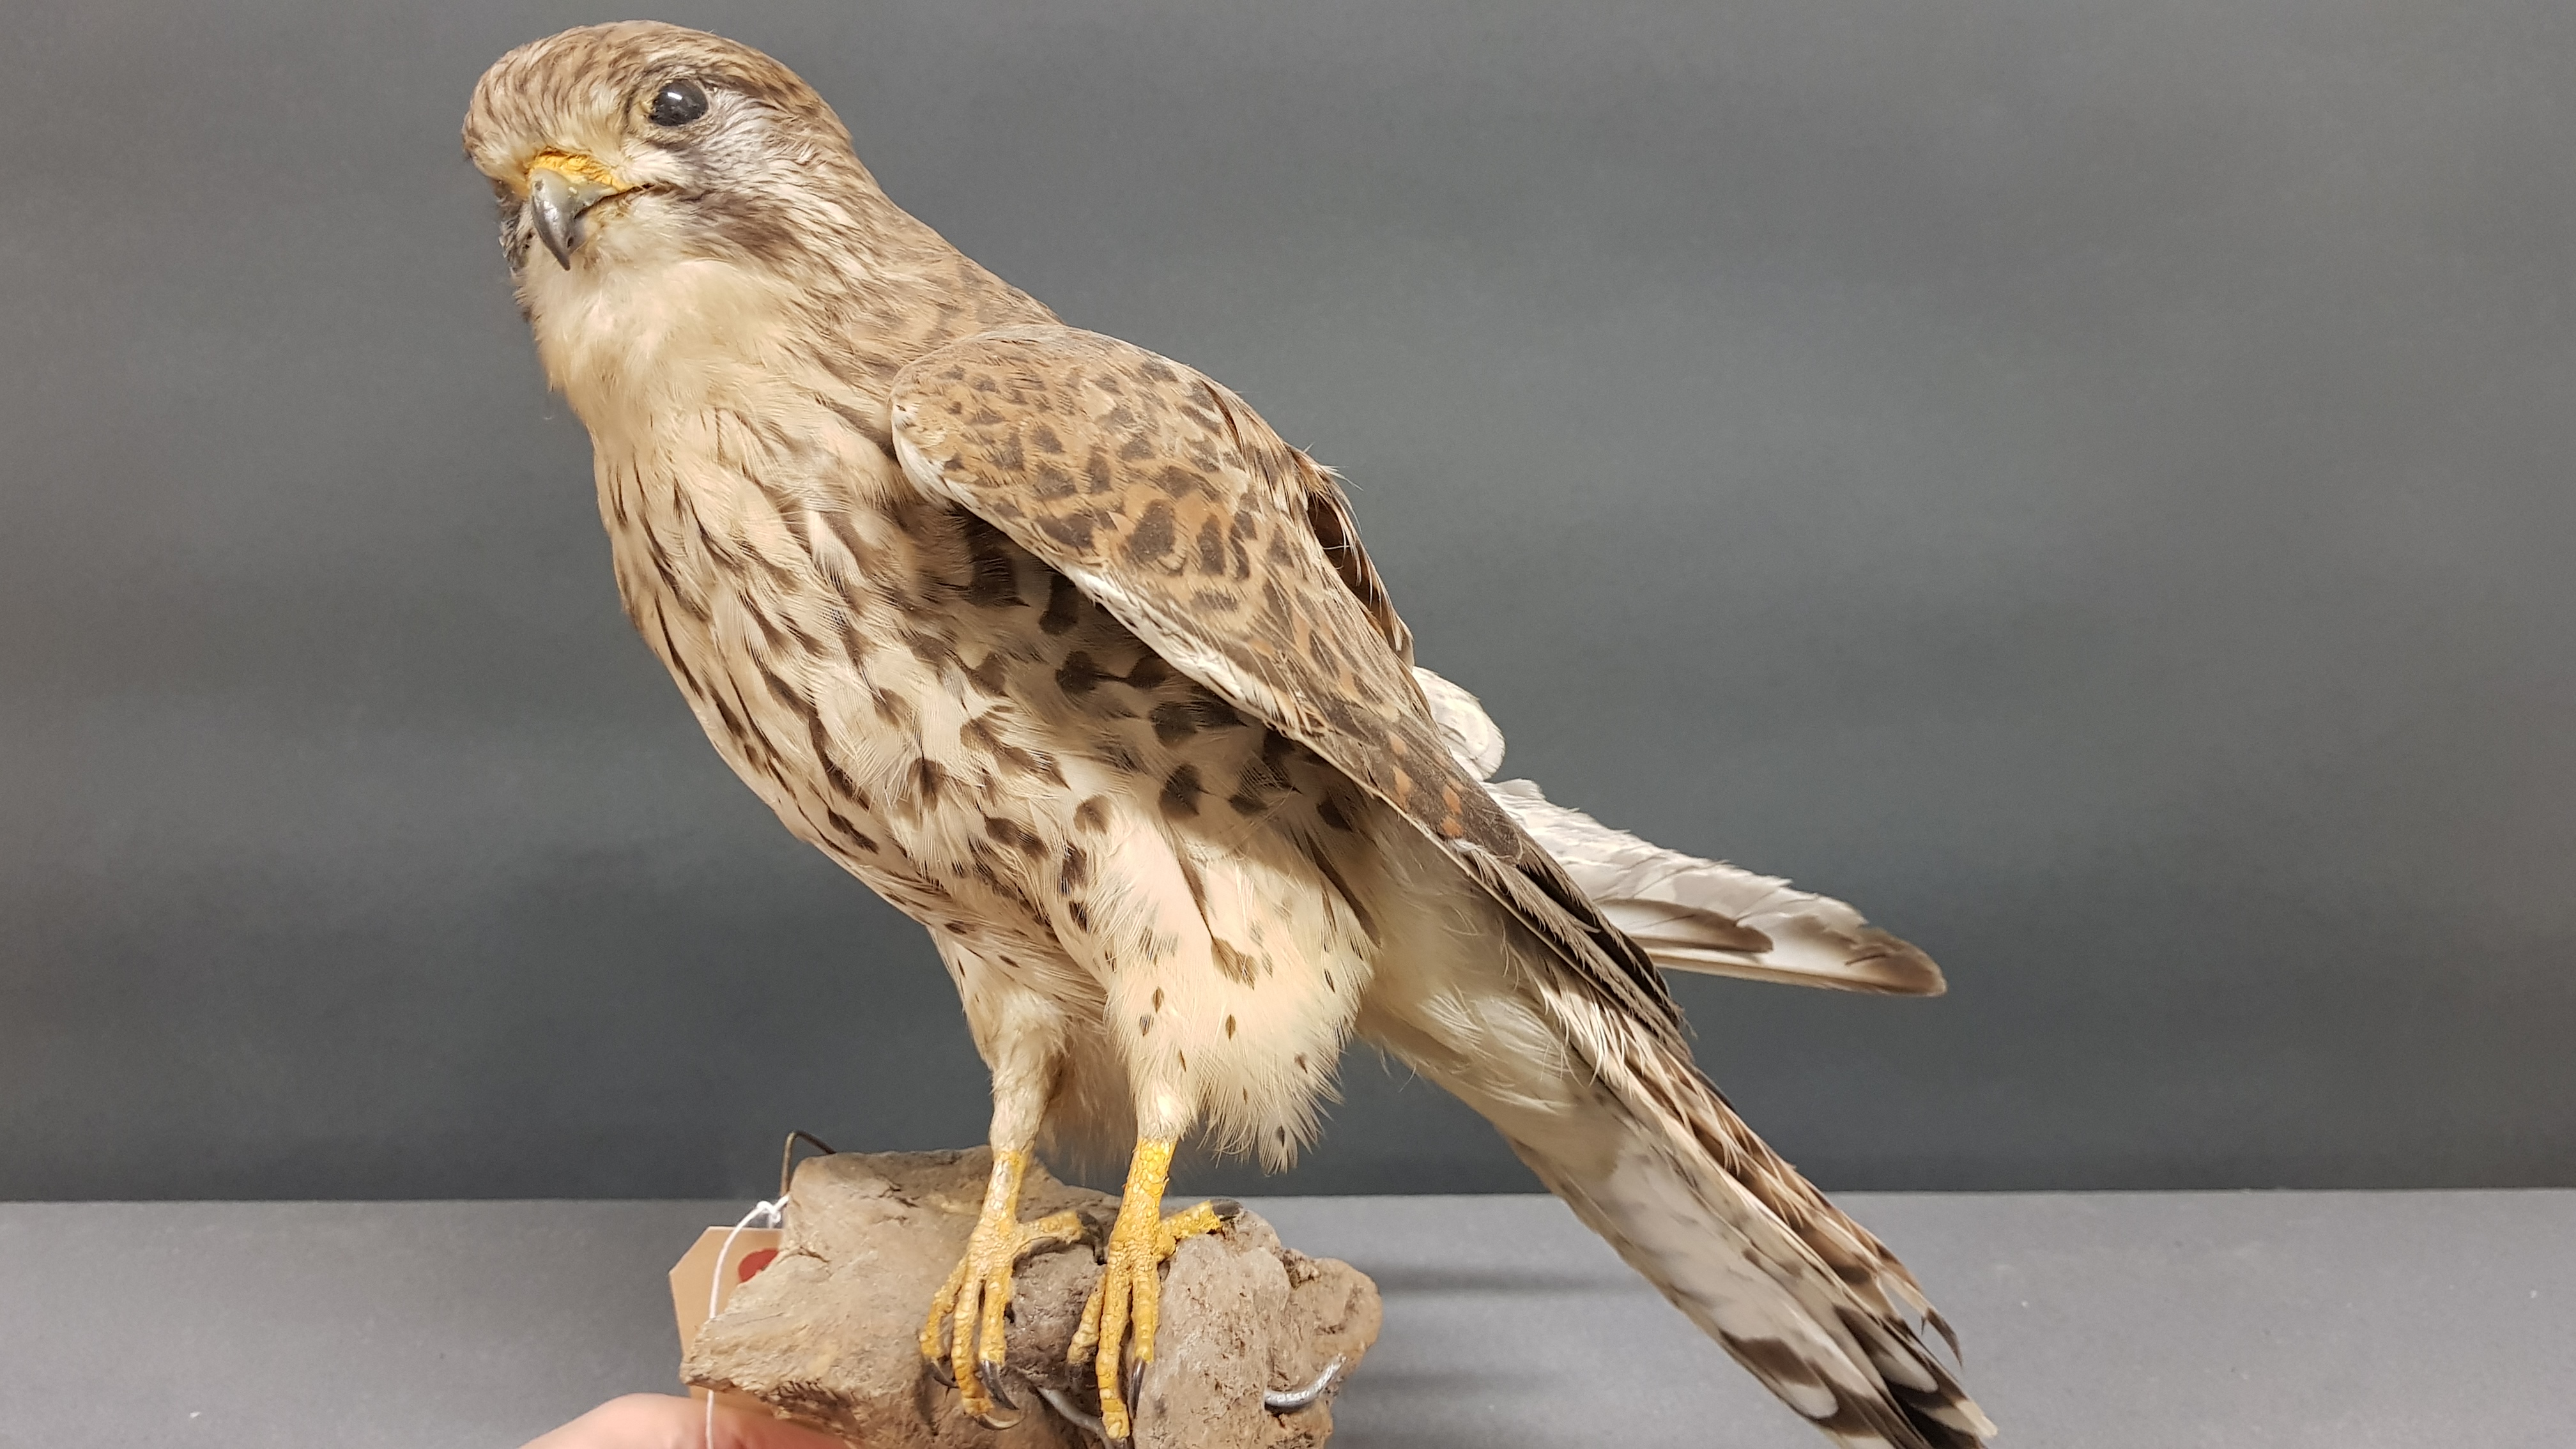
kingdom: Animalia
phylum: Chordata
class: Aves
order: Falconiformes
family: Falconidae
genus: Falco
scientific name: Falco tinnunculus
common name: Common kestrel
